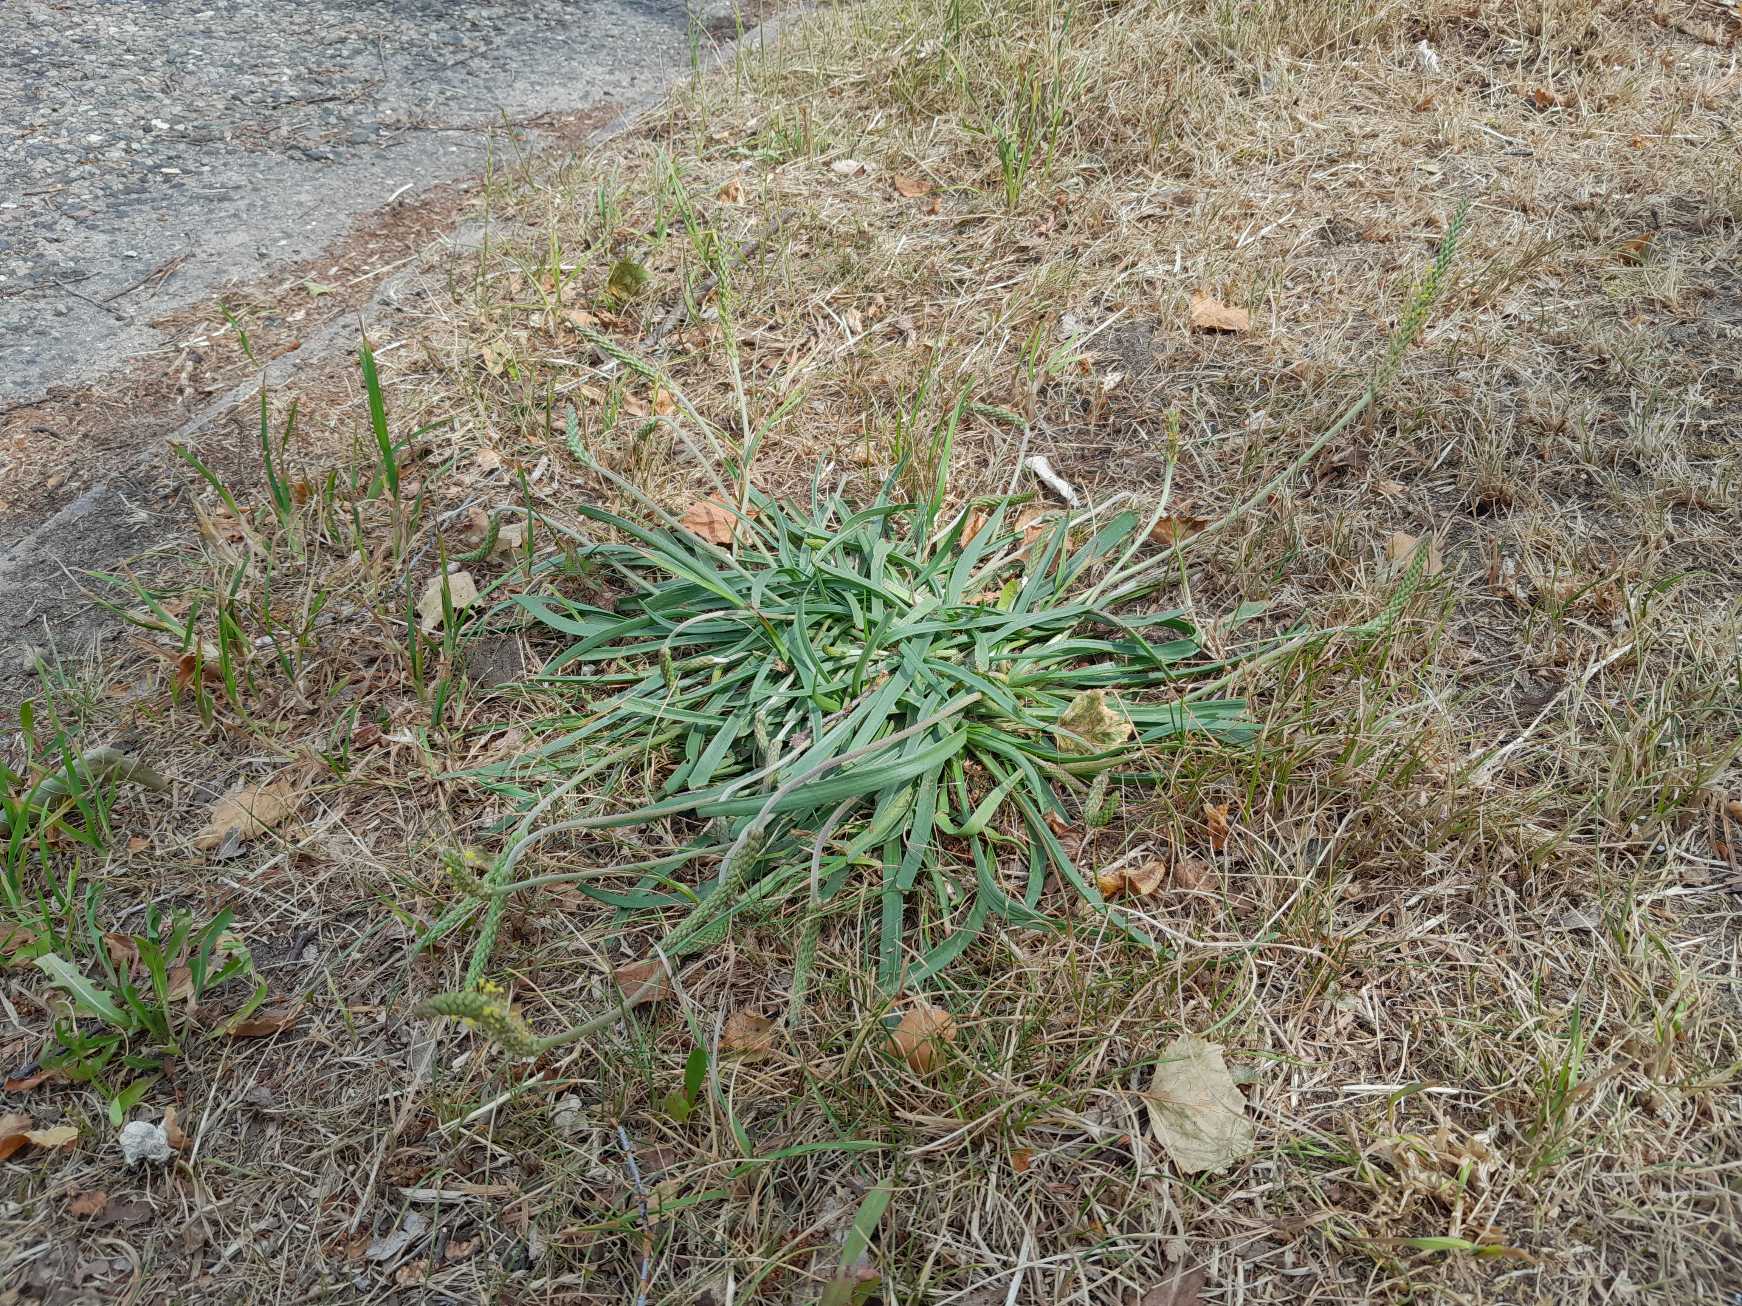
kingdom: Plantae
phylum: Tracheophyta
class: Magnoliopsida
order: Lamiales
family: Plantaginaceae
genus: Plantago
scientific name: Plantago maritima
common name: Strand-vejbred
